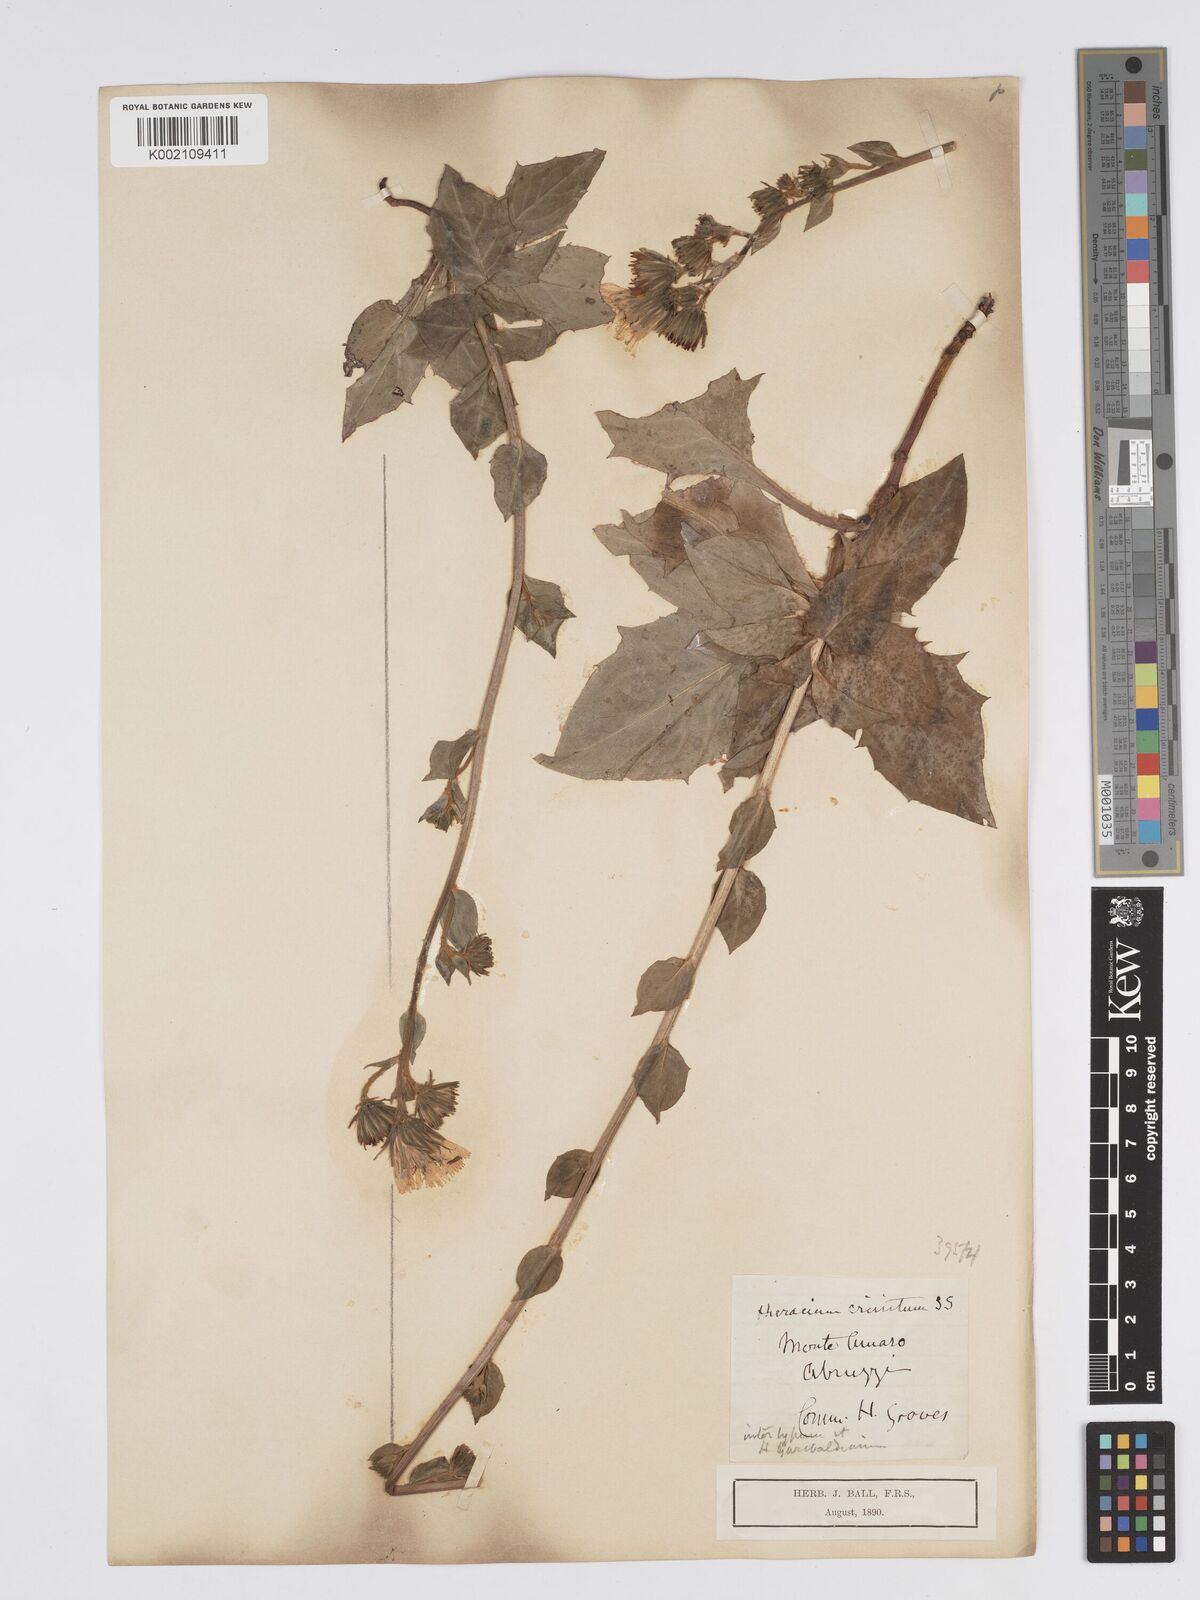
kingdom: Plantae
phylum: Tracheophyta
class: Magnoliopsida
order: Asterales
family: Asteraceae
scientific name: Asteraceae
